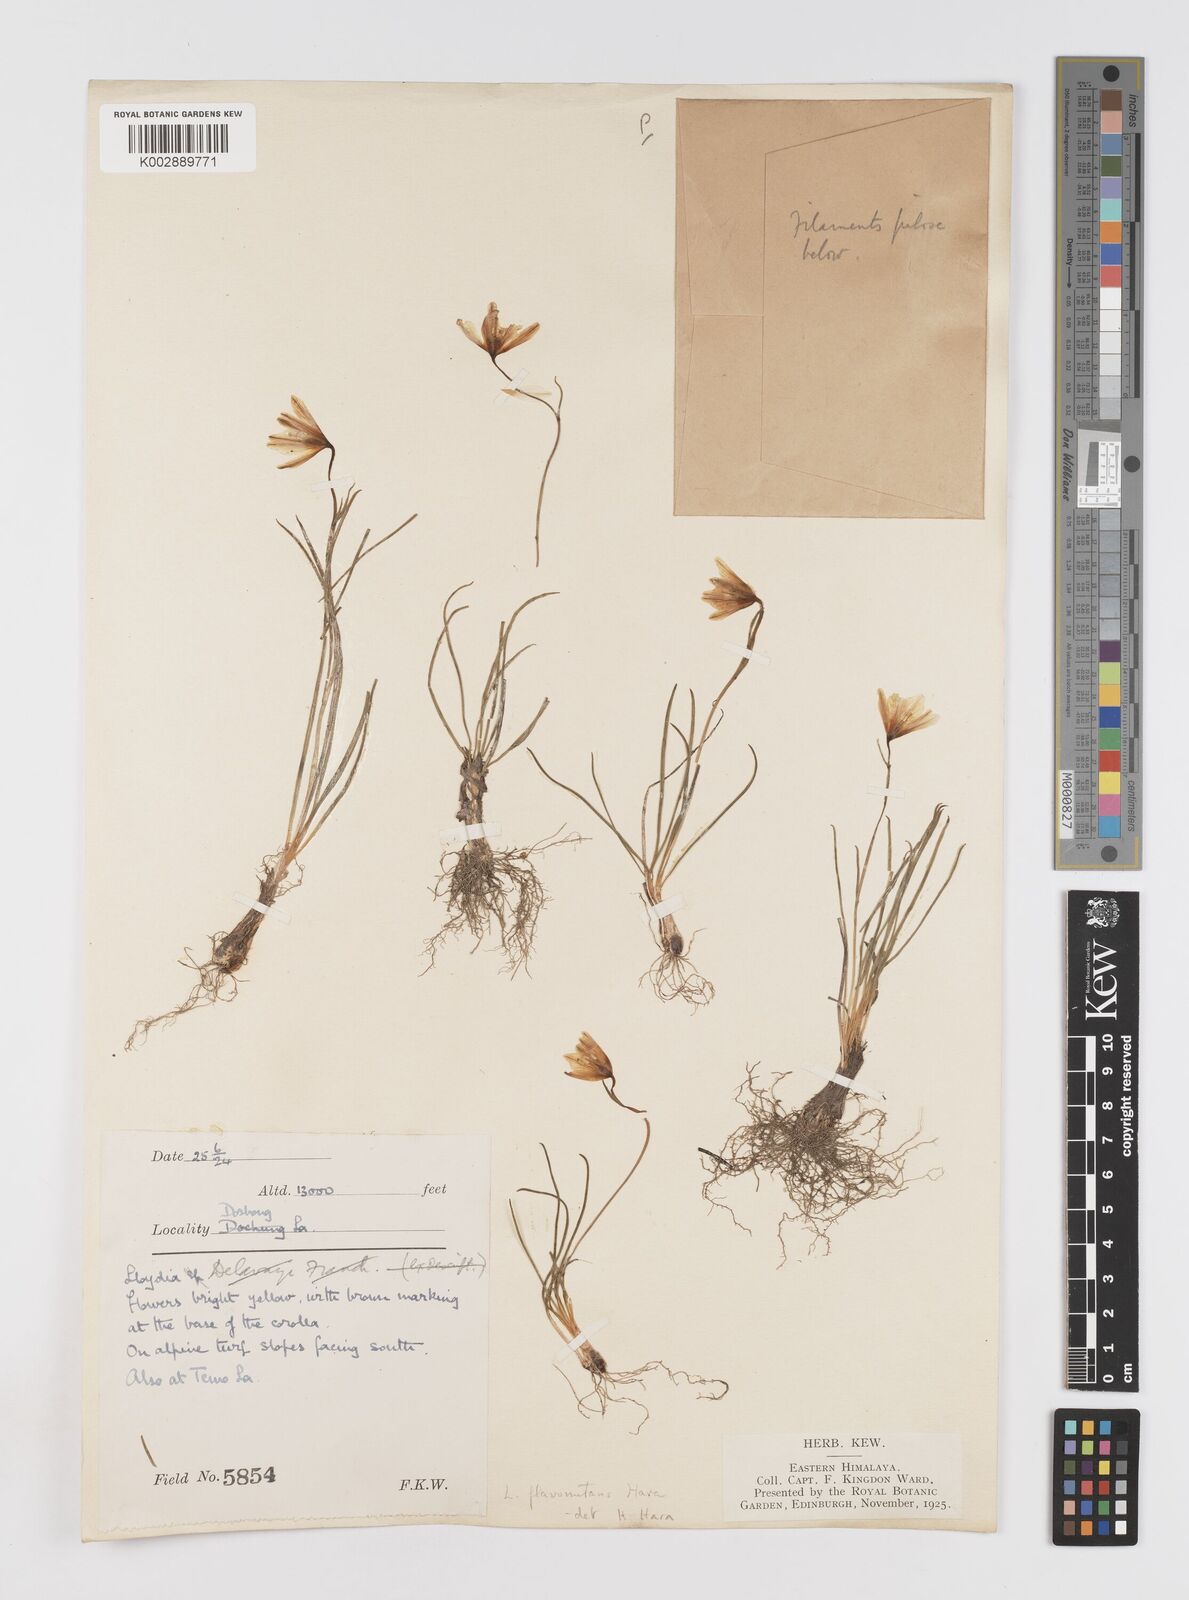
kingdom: Plantae
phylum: Tracheophyta
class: Liliopsida
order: Liliales
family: Liliaceae
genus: Gagea
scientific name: Gagea flavonutans
